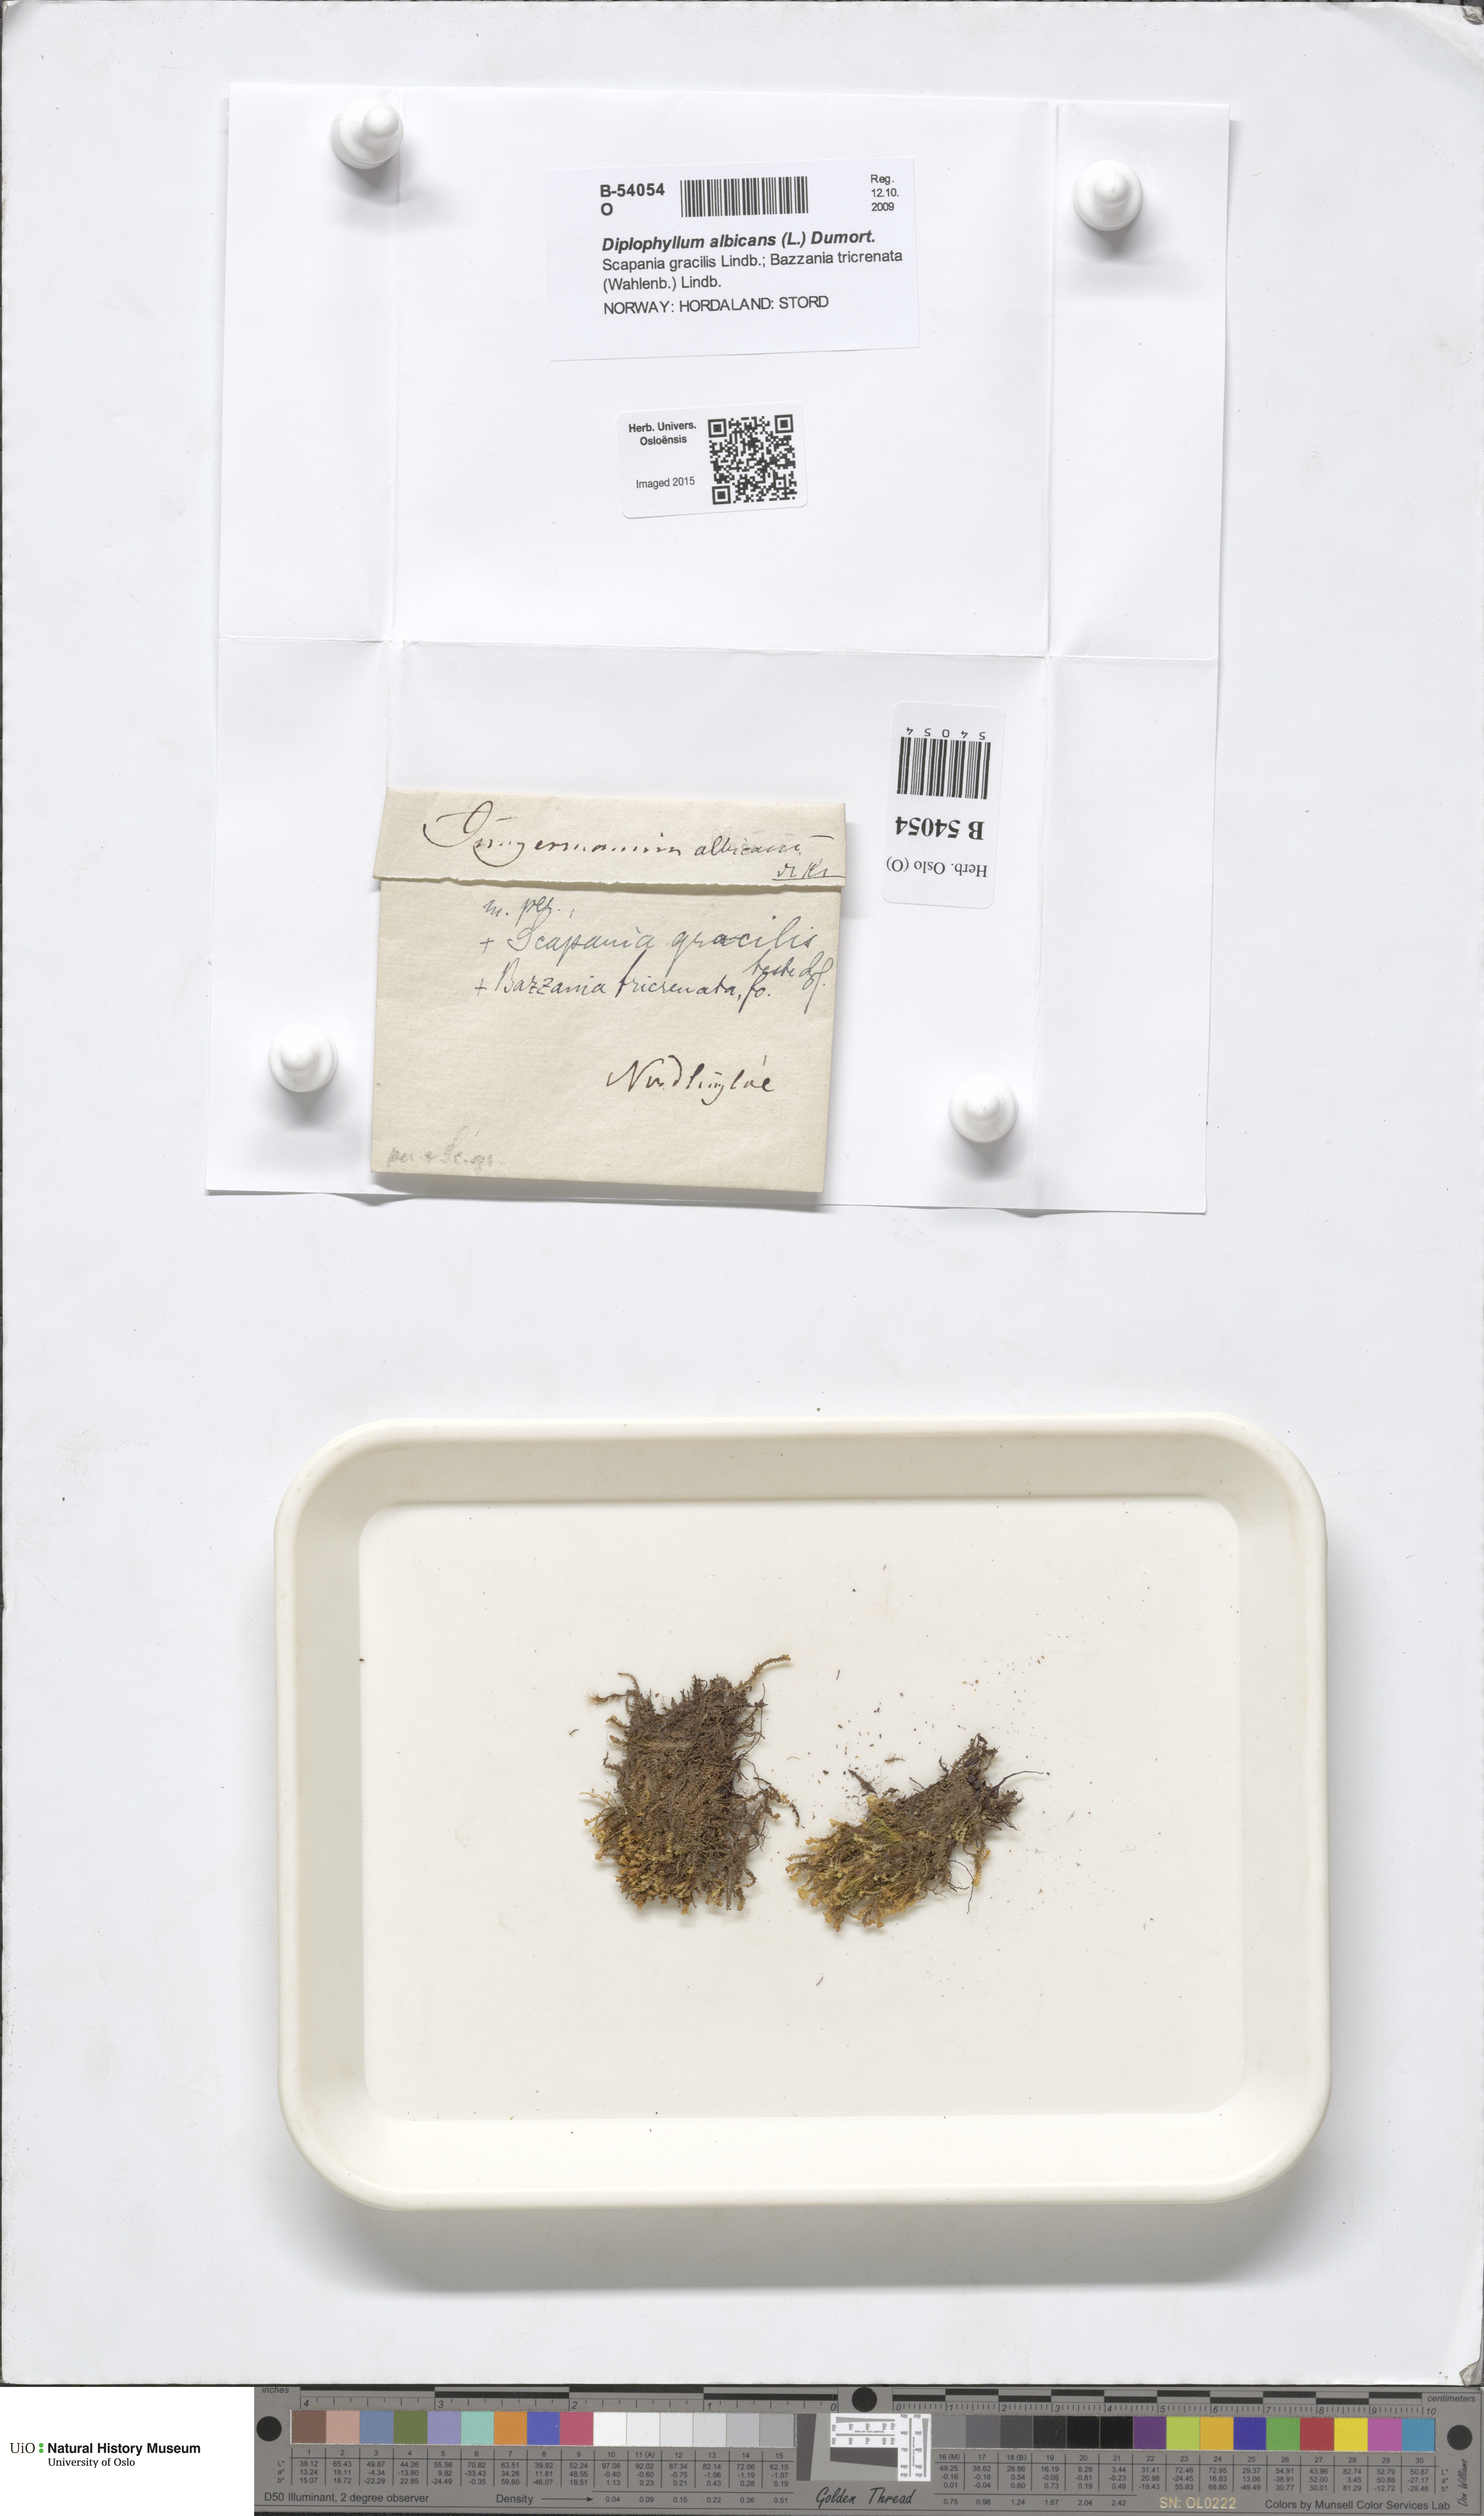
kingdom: Plantae
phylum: Marchantiophyta
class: Jungermanniopsida
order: Jungermanniales
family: Scapaniaceae
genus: Diplophyllum
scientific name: Diplophyllum albicans
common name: White earwort
